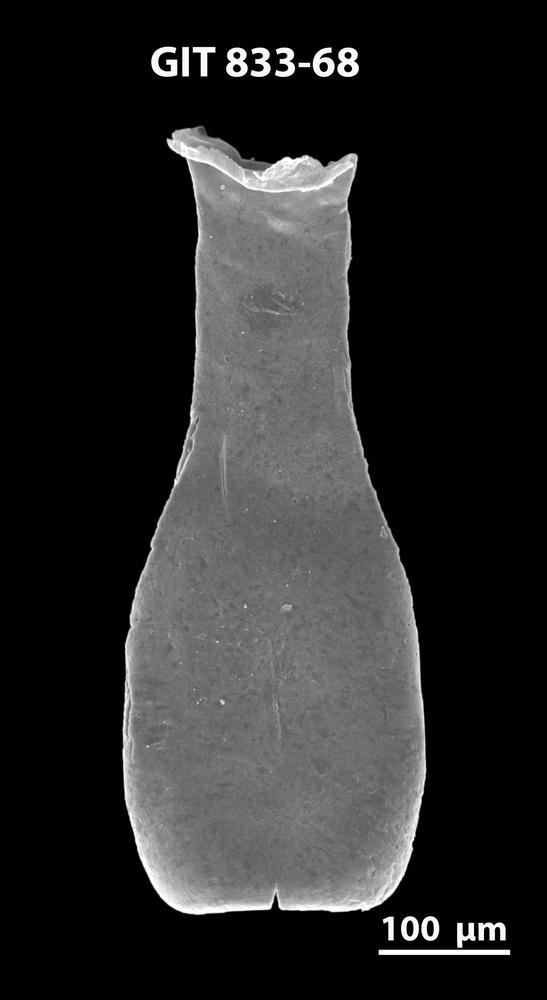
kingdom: Animalia
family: Lagenochitinidae
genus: Lagenochitina
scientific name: Lagenochitina megaesthonica
